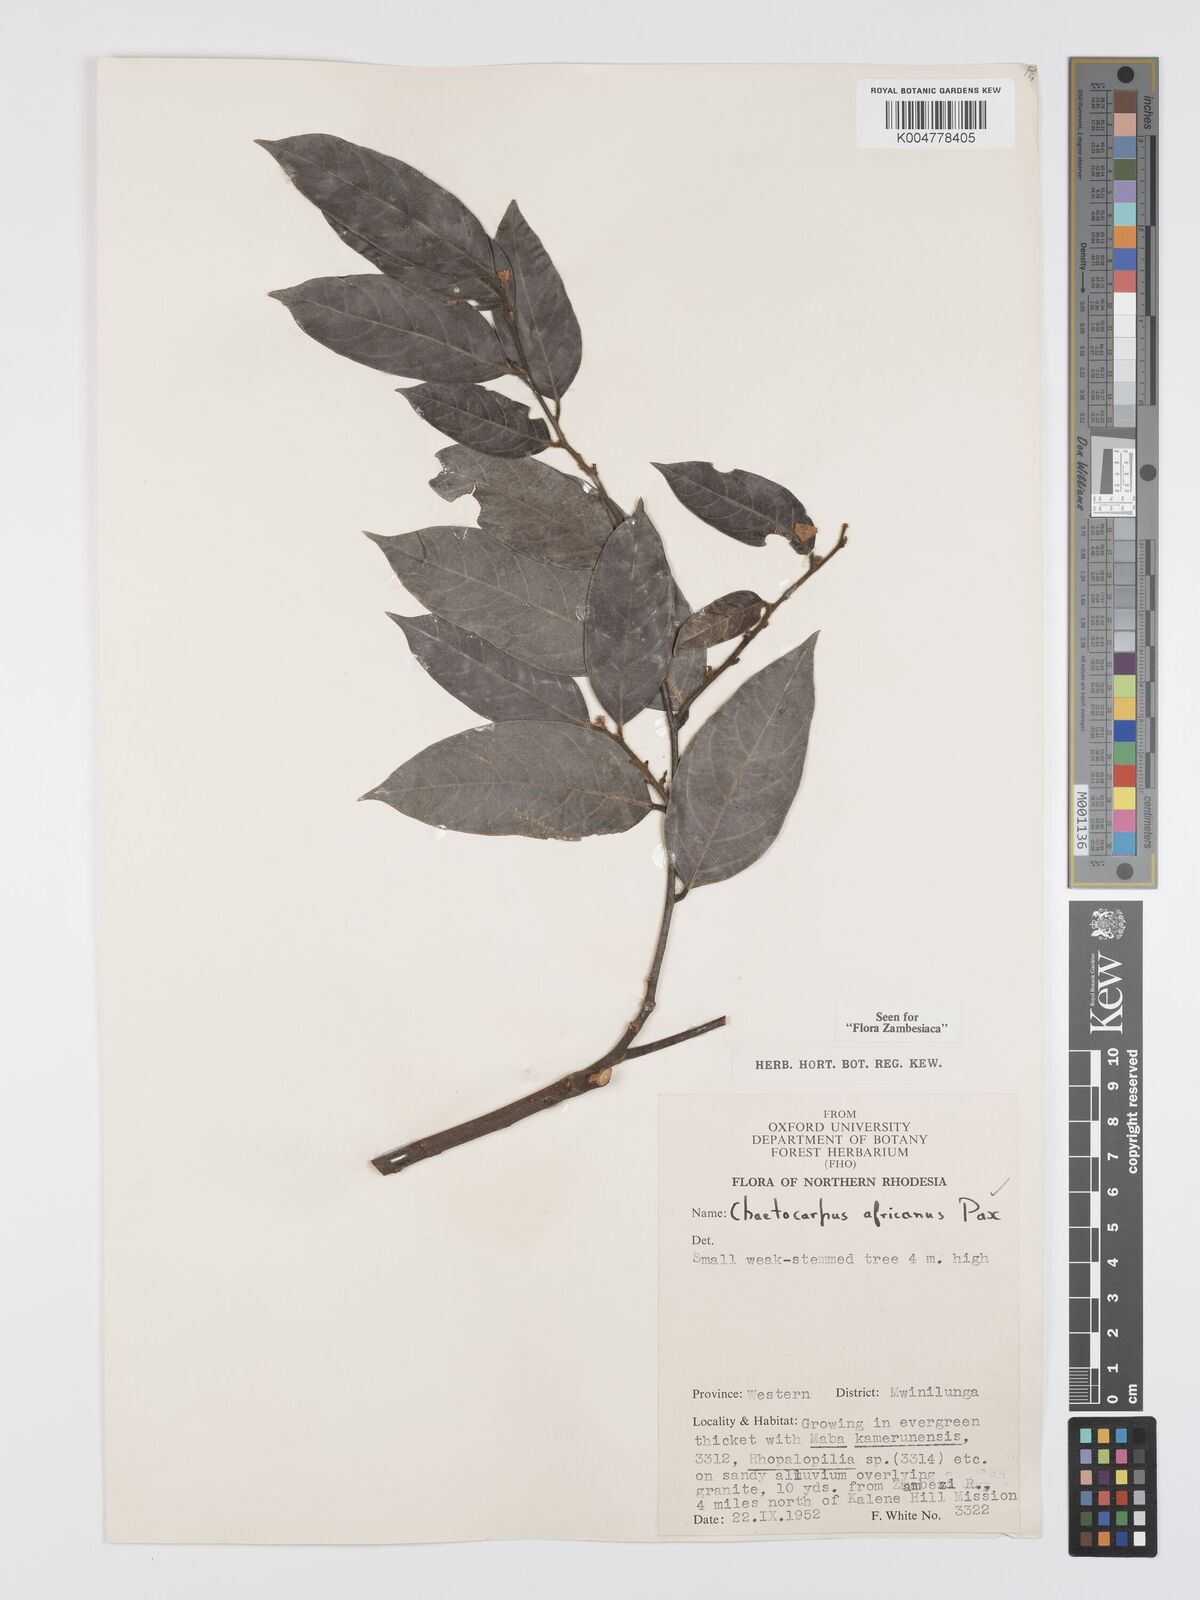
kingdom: Plantae
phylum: Tracheophyta
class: Magnoliopsida
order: Malpighiales
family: Peraceae
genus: Chaetocarpus
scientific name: Chaetocarpus africanus
